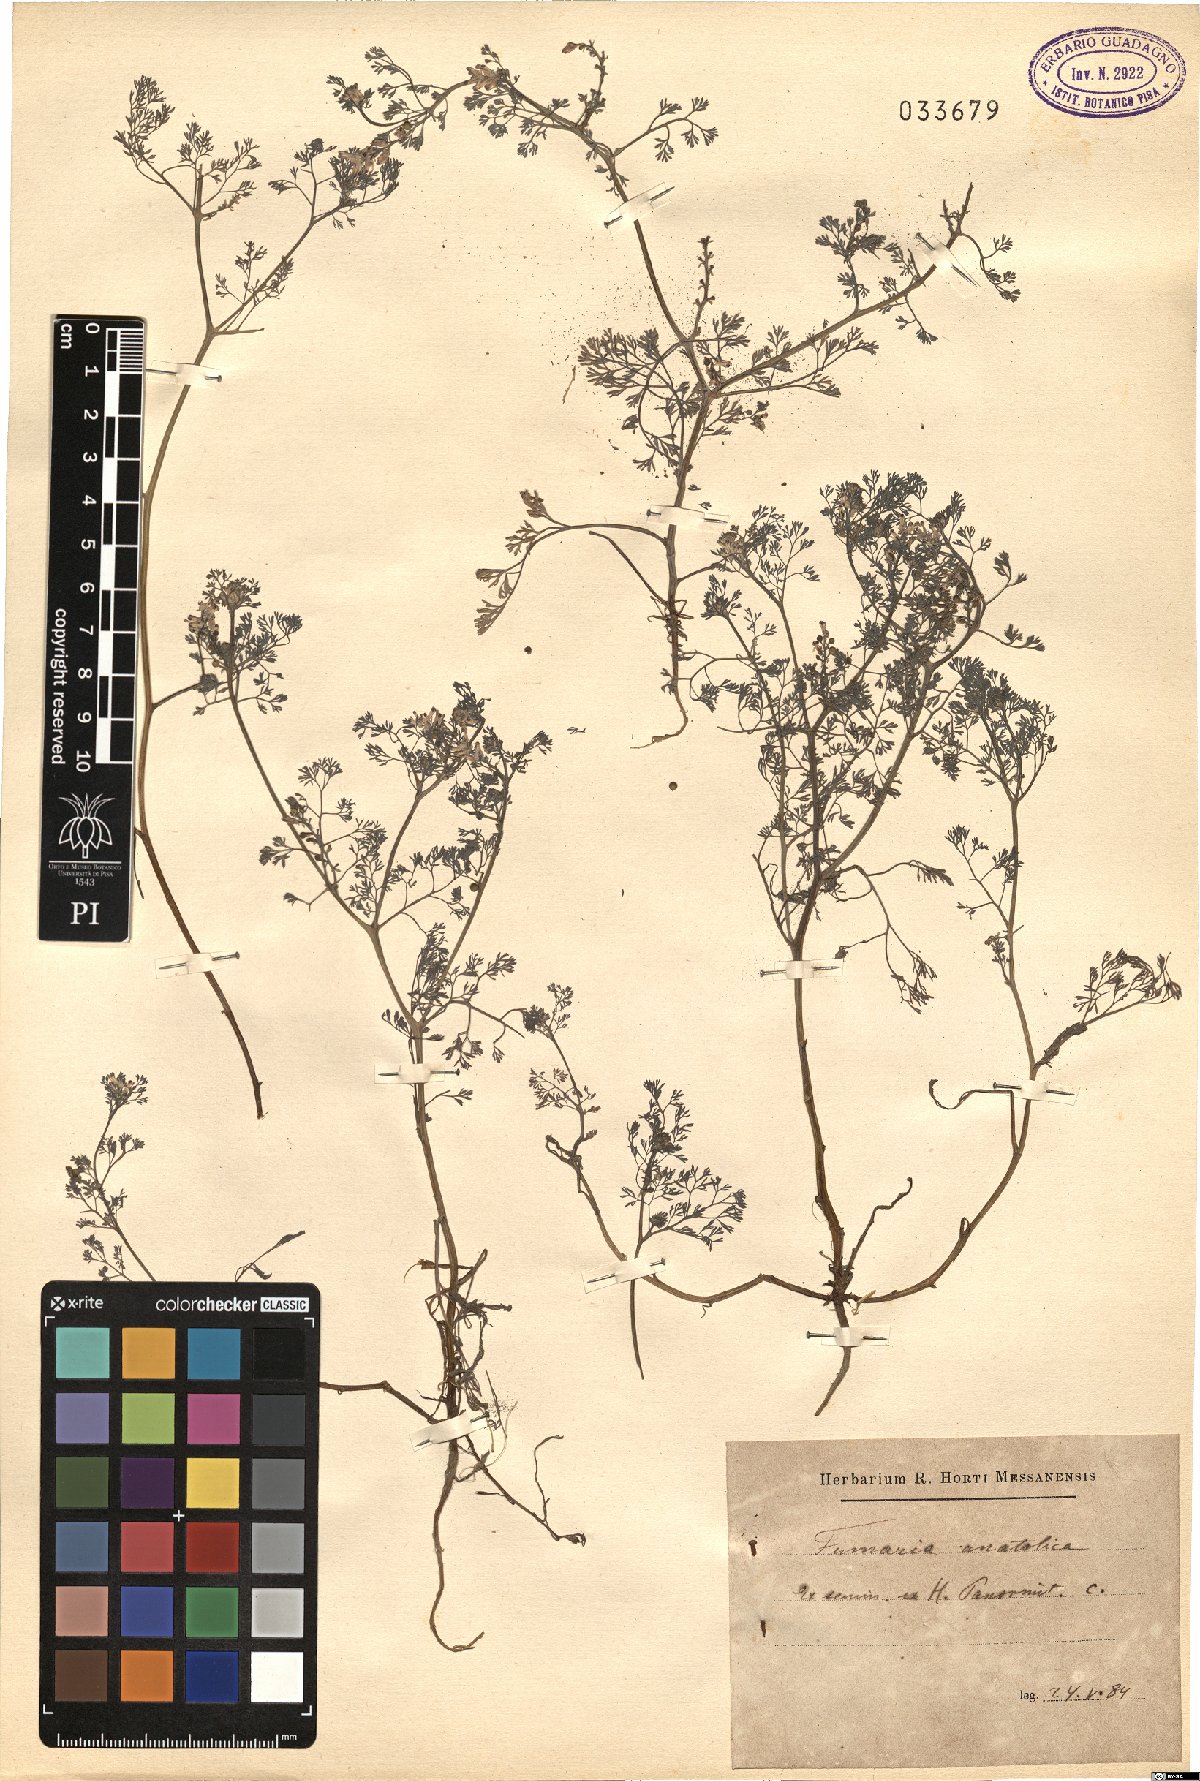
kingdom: Plantae
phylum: Tracheophyta
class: Magnoliopsida
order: Ranunculales
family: Papaveraceae
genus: Fumaria
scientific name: Fumaria kralikii
